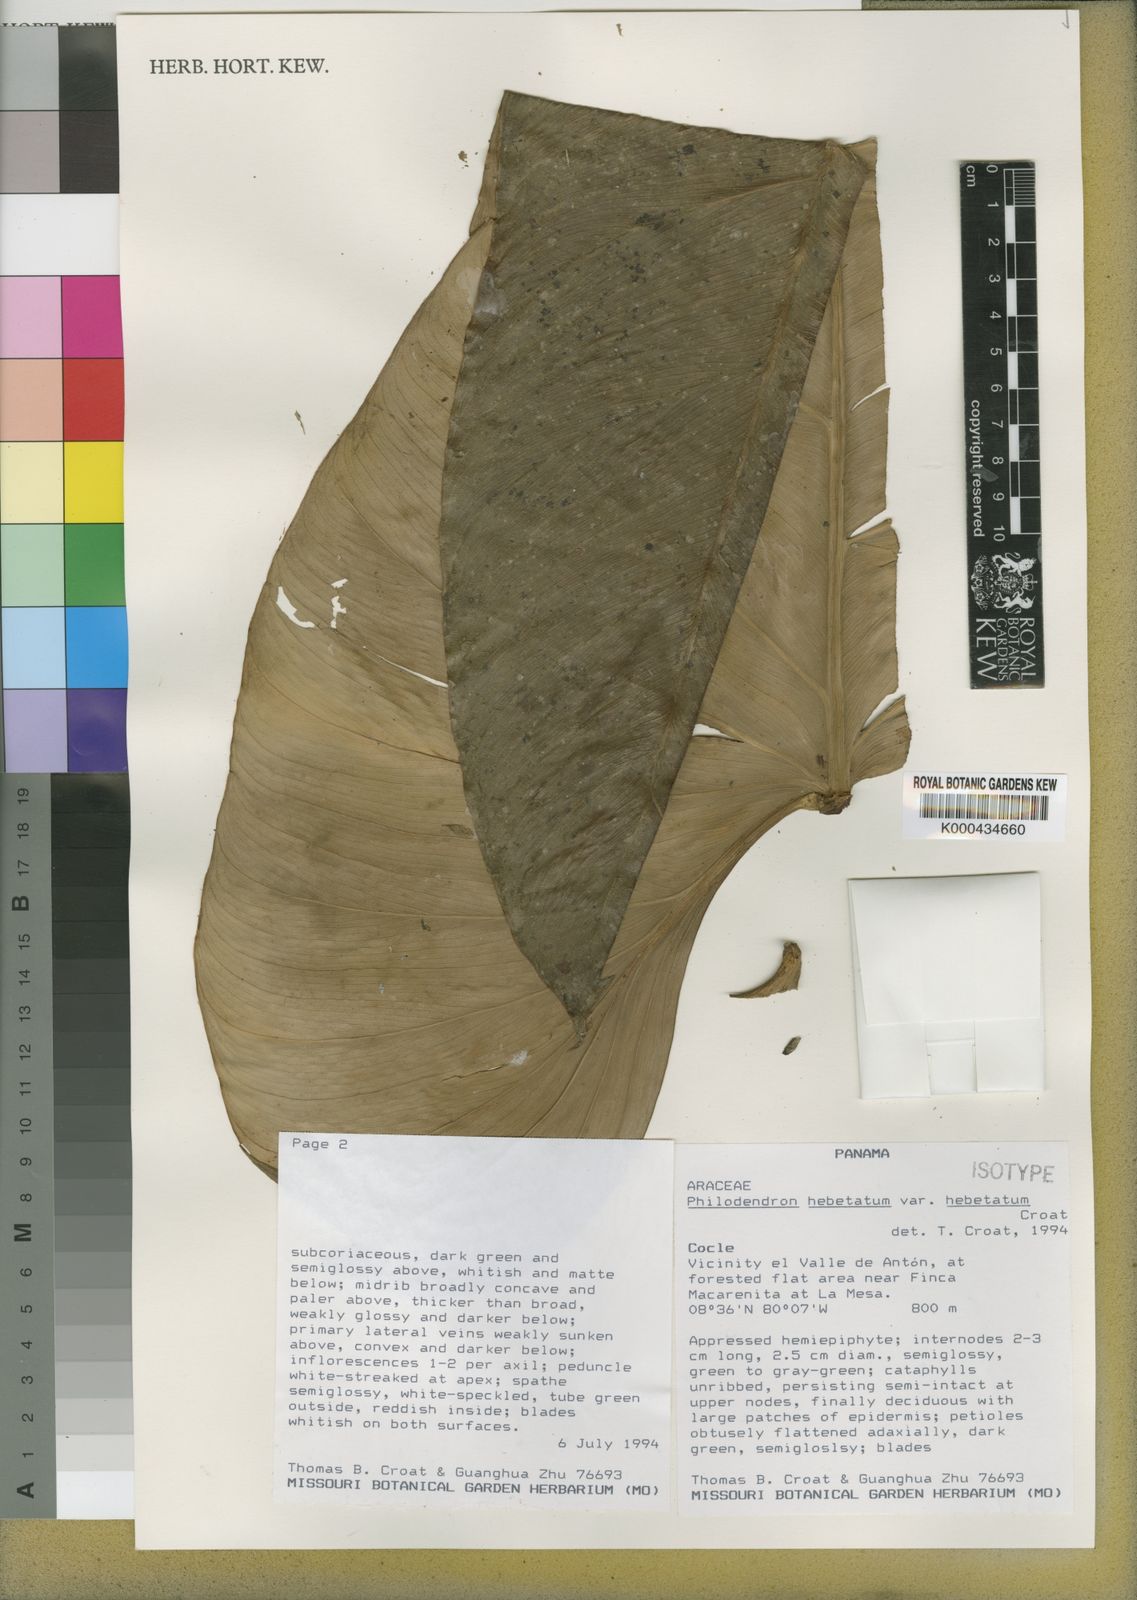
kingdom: Plantae
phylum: Tracheophyta
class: Liliopsida
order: Alismatales
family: Araceae
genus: Philodendron
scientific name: Philodendron hebetatum
